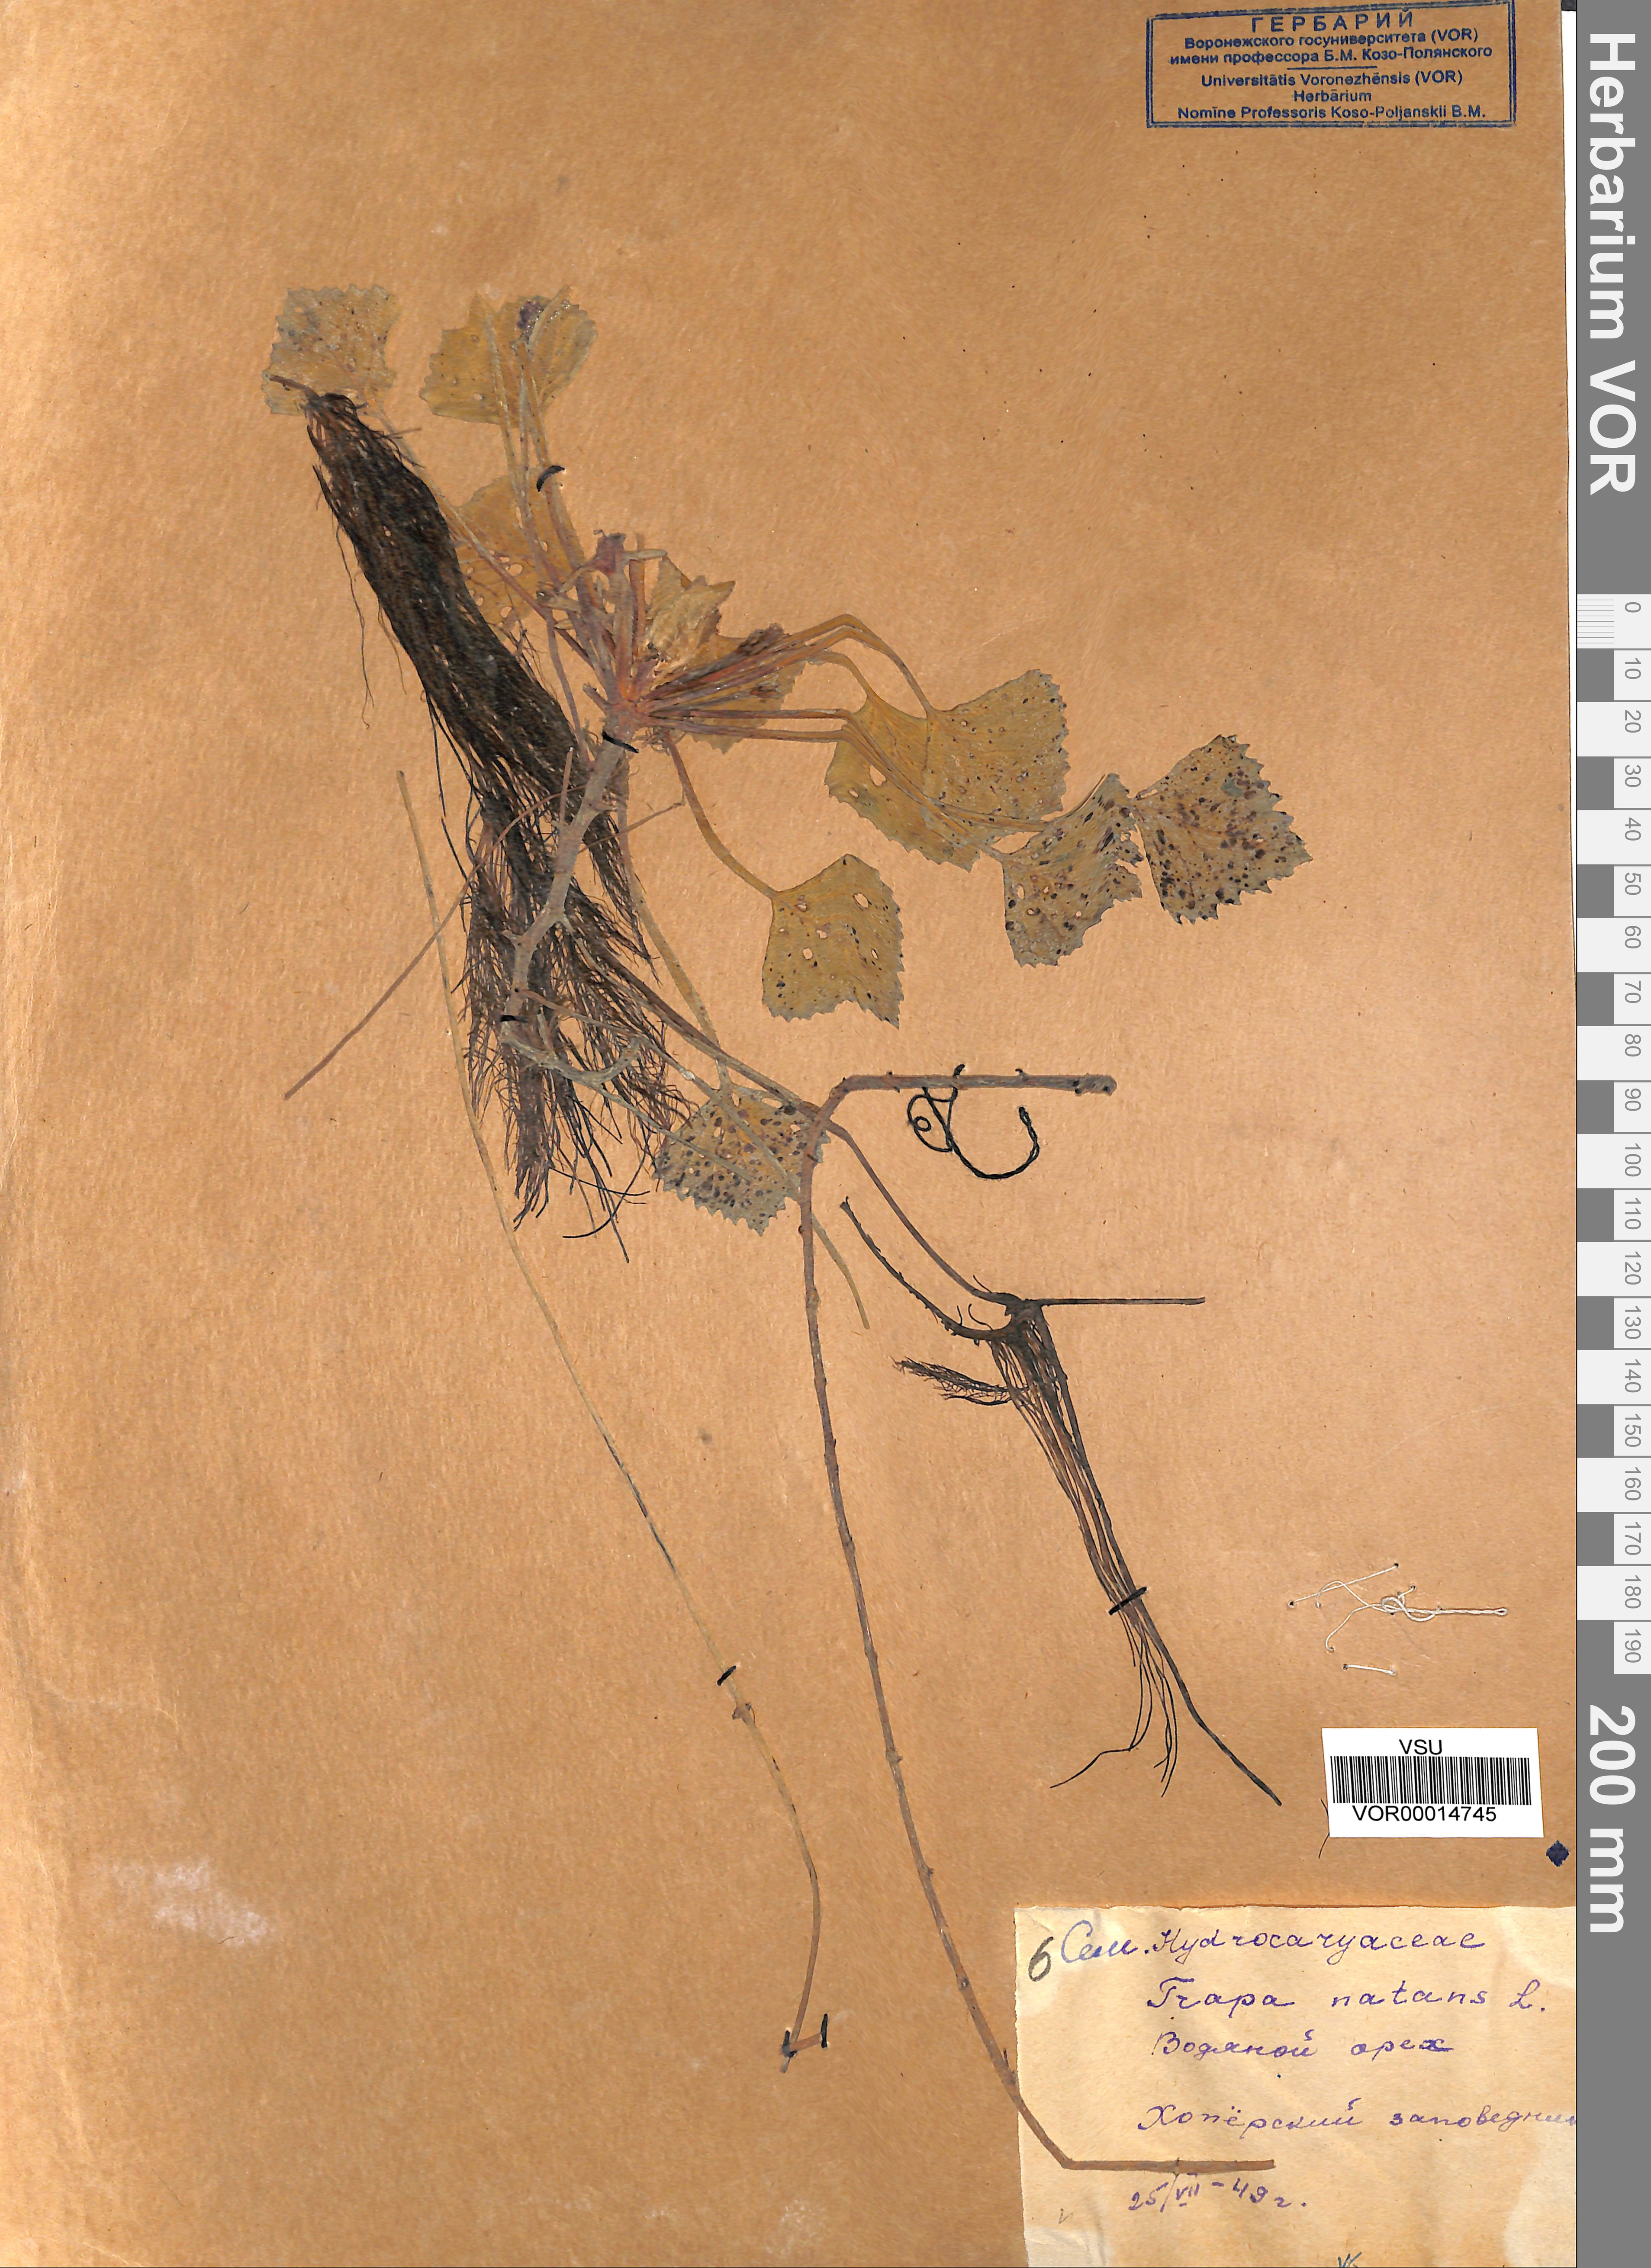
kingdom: Plantae
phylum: Tracheophyta
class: Magnoliopsida
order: Myrtales
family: Lythraceae
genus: Trapa
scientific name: Trapa natans
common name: Water chestnut
